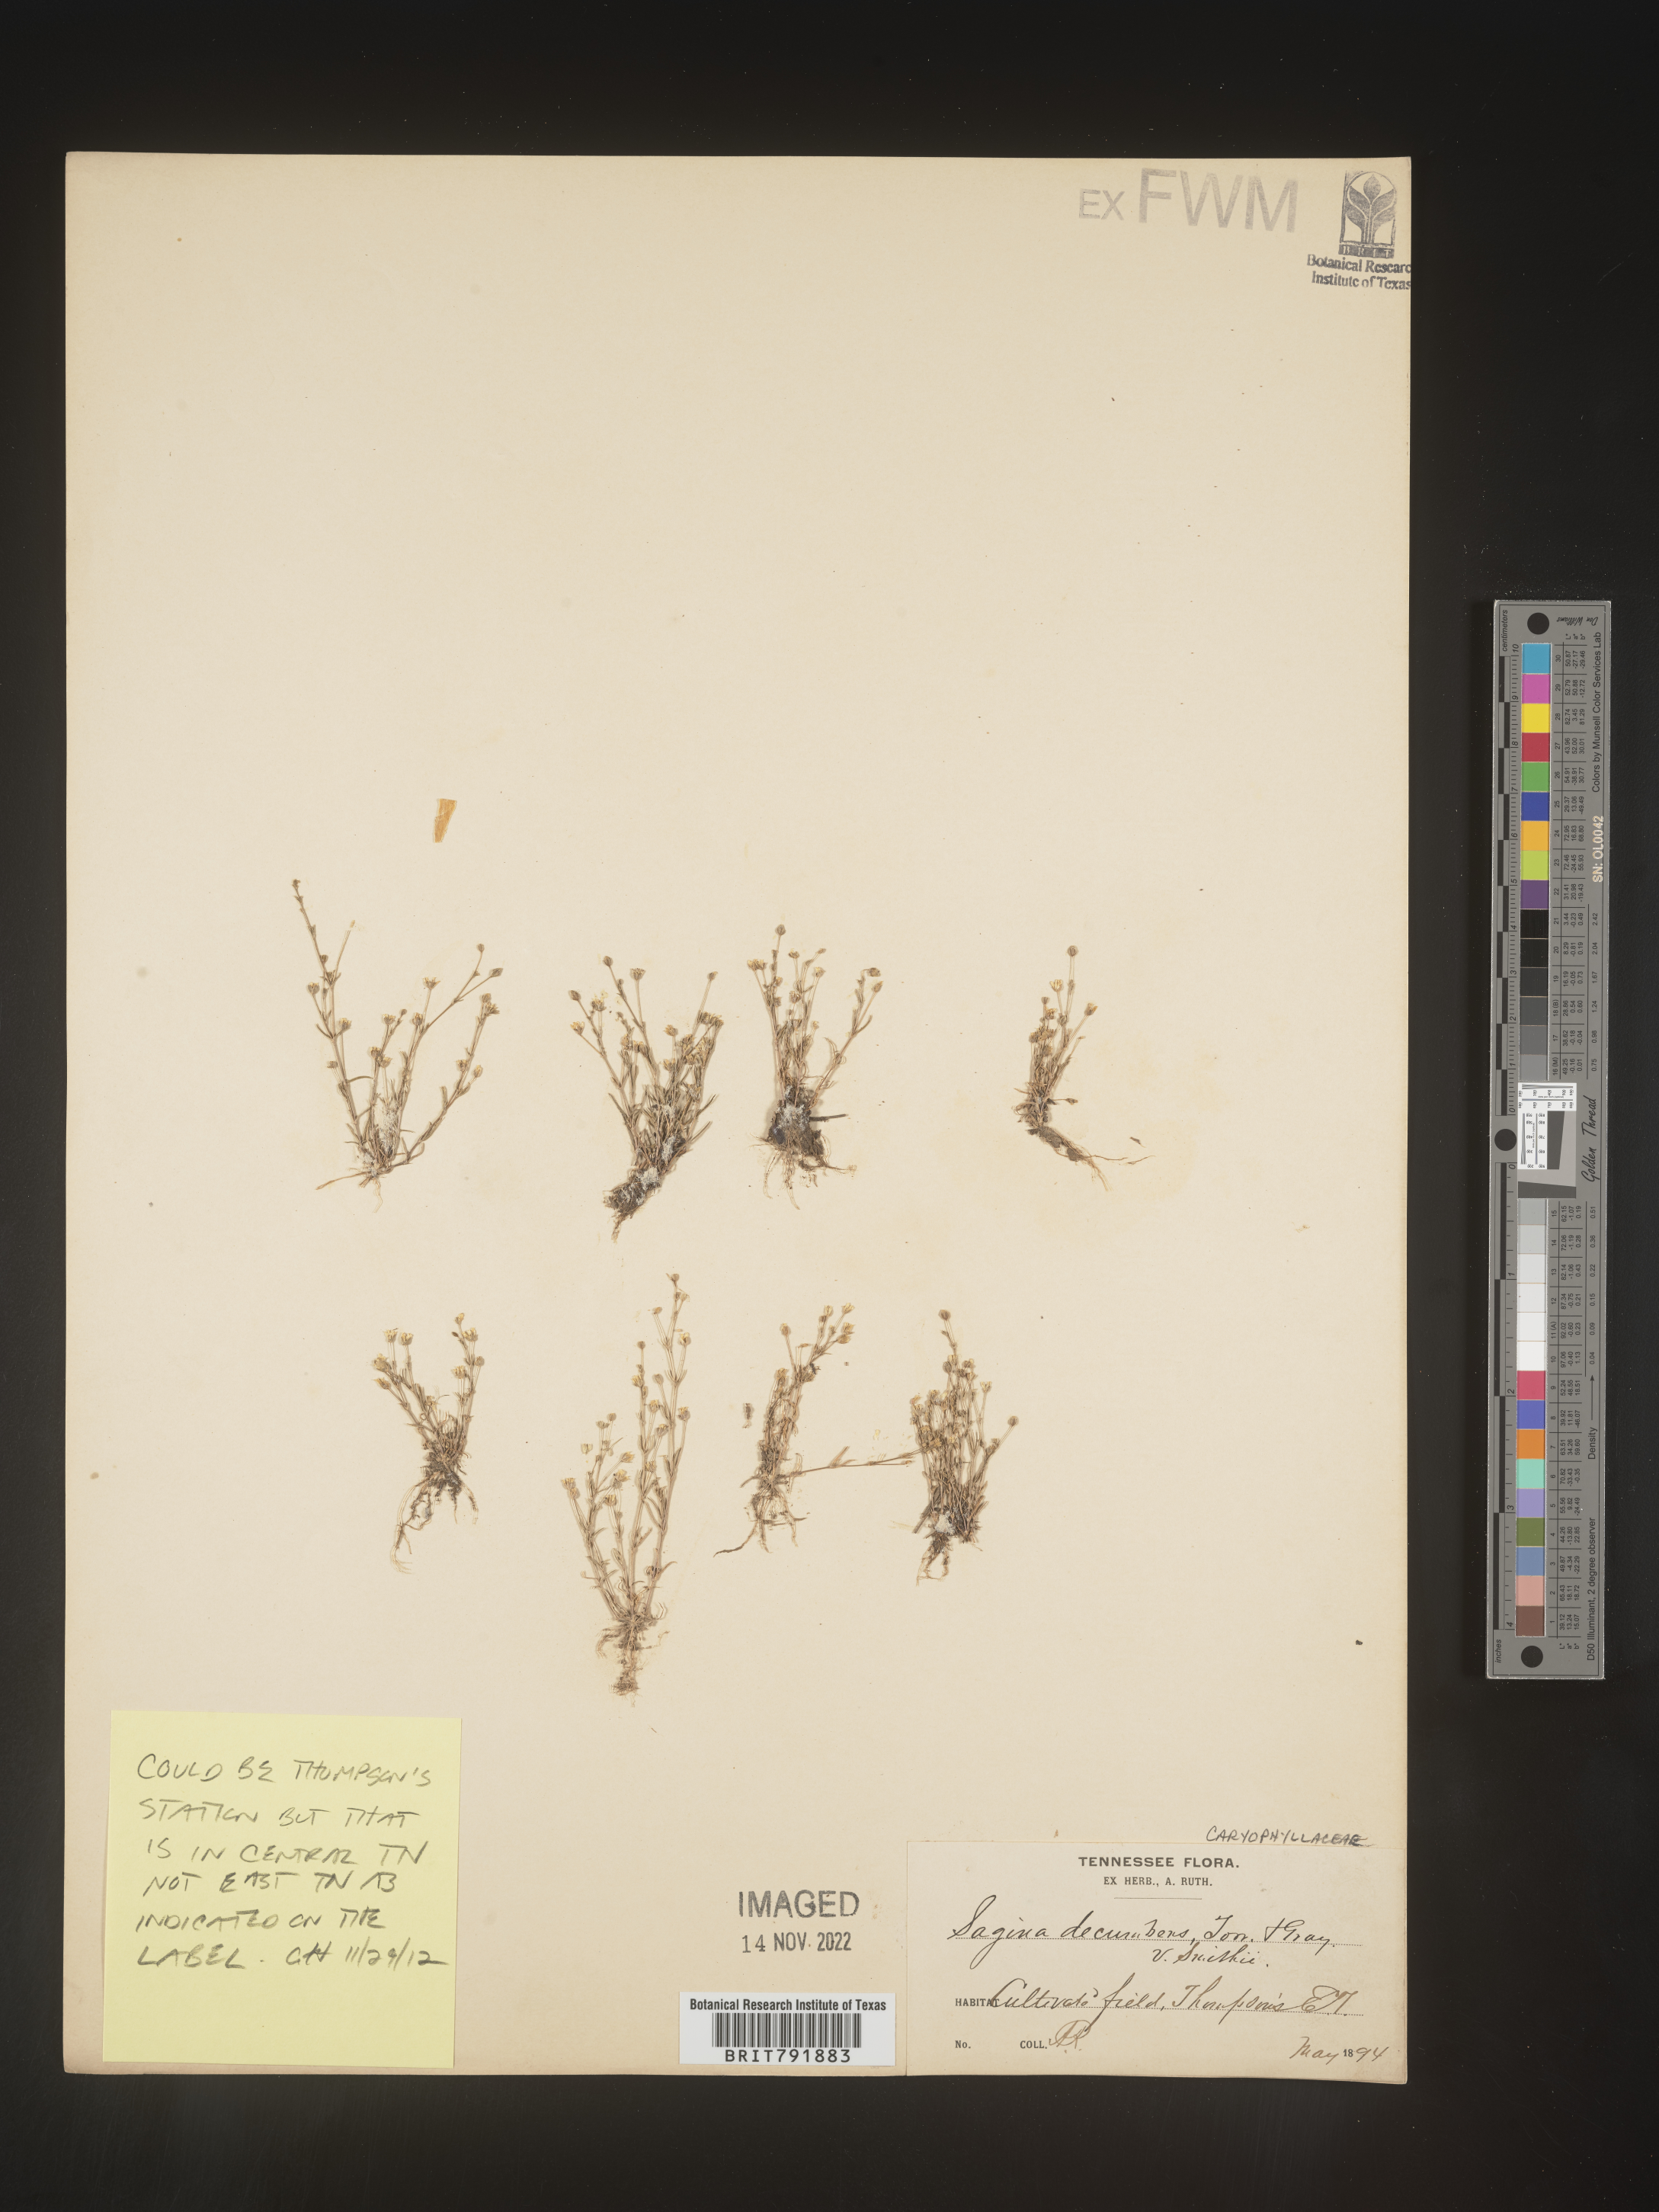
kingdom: Plantae
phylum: Tracheophyta
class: Magnoliopsida
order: Caryophyllales
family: Caryophyllaceae
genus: Sagina
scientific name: Sagina decumbens
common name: Decumbent pearlwort
